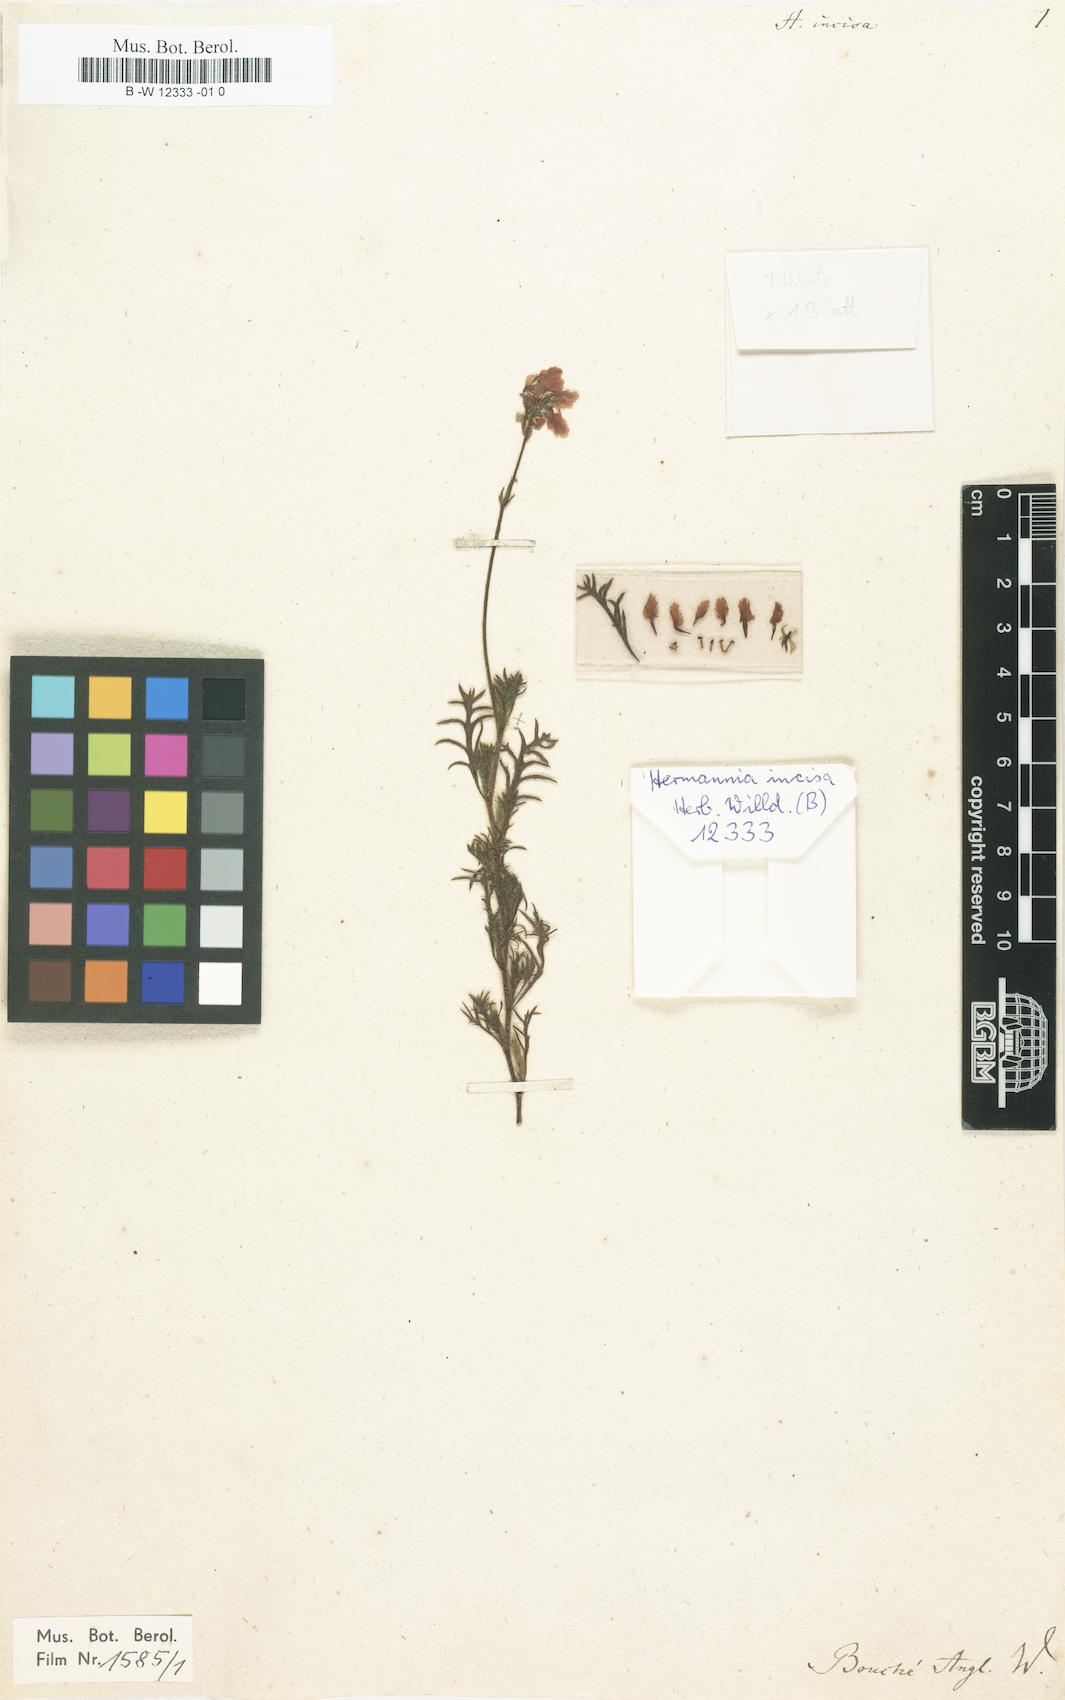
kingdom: Plantae
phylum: Tracheophyta
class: Magnoliopsida
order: Malvales
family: Malvaceae
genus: Hermannia
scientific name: Hermannia incisa
